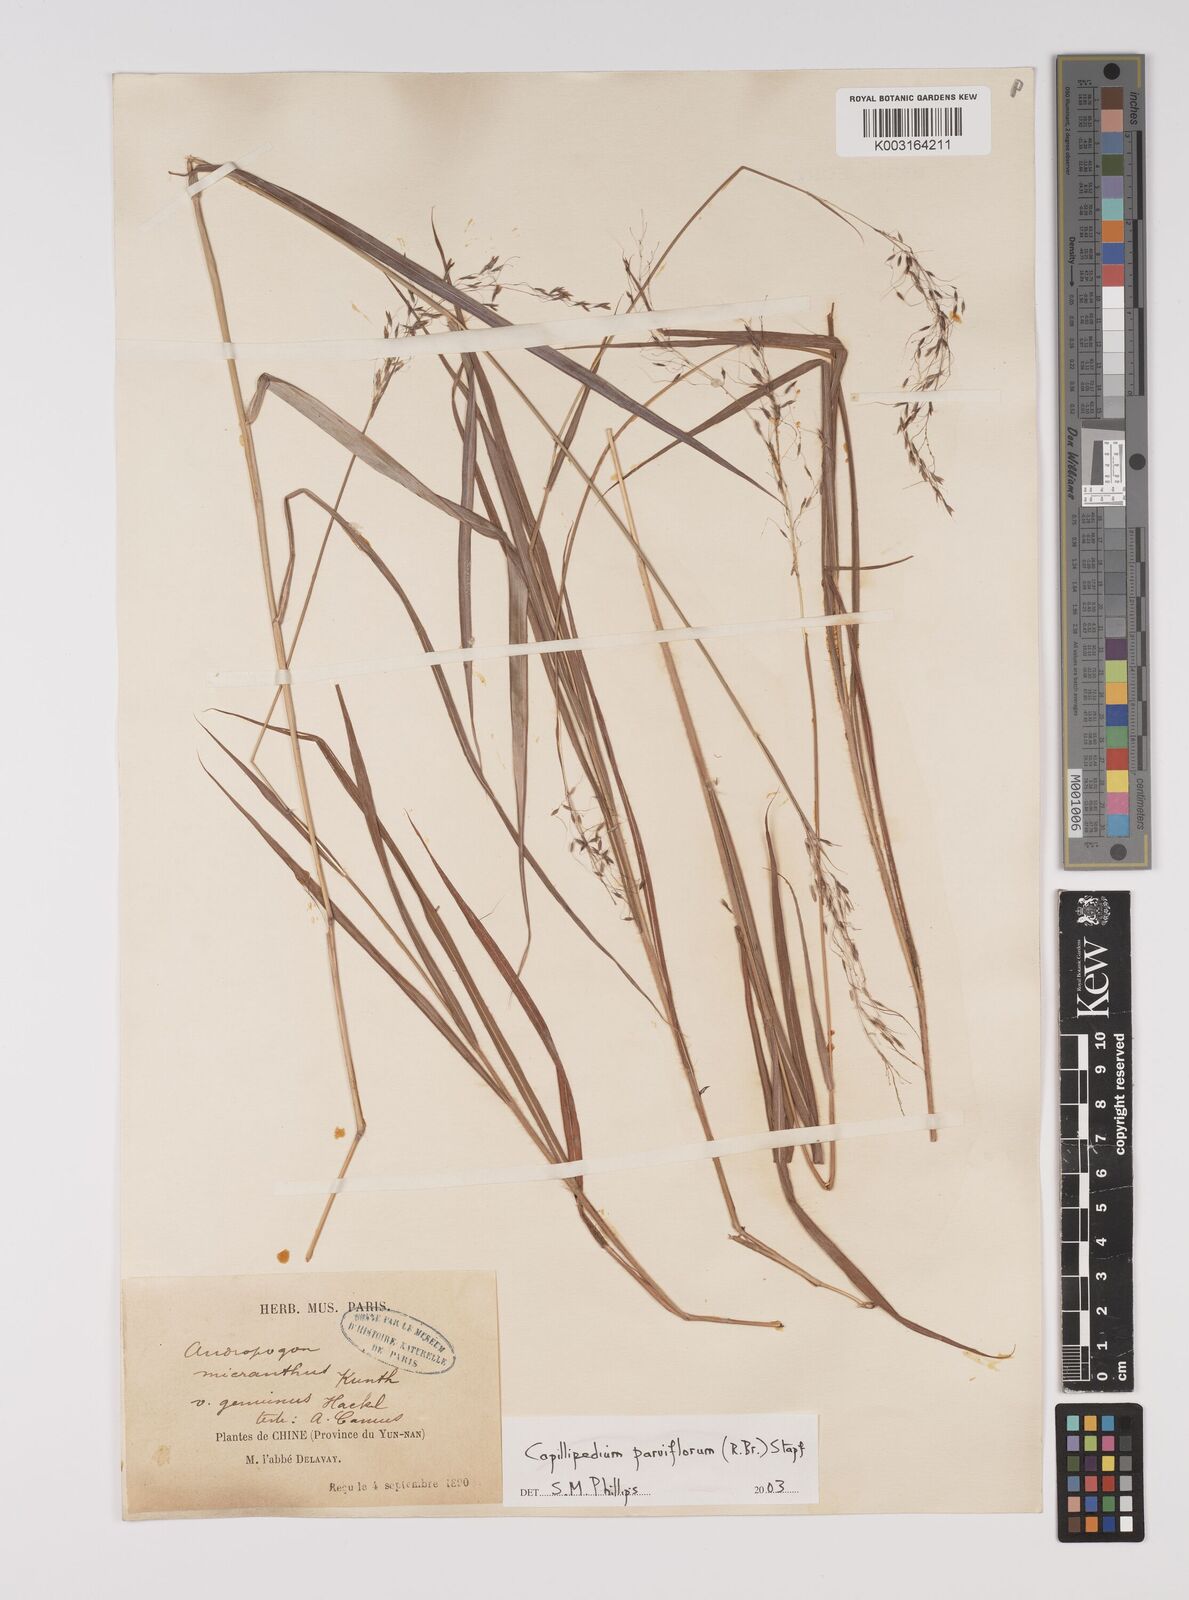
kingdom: Plantae
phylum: Tracheophyta
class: Liliopsida
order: Poales
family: Poaceae
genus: Capillipedium
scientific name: Capillipedium parviflorum
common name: Golden-beard
